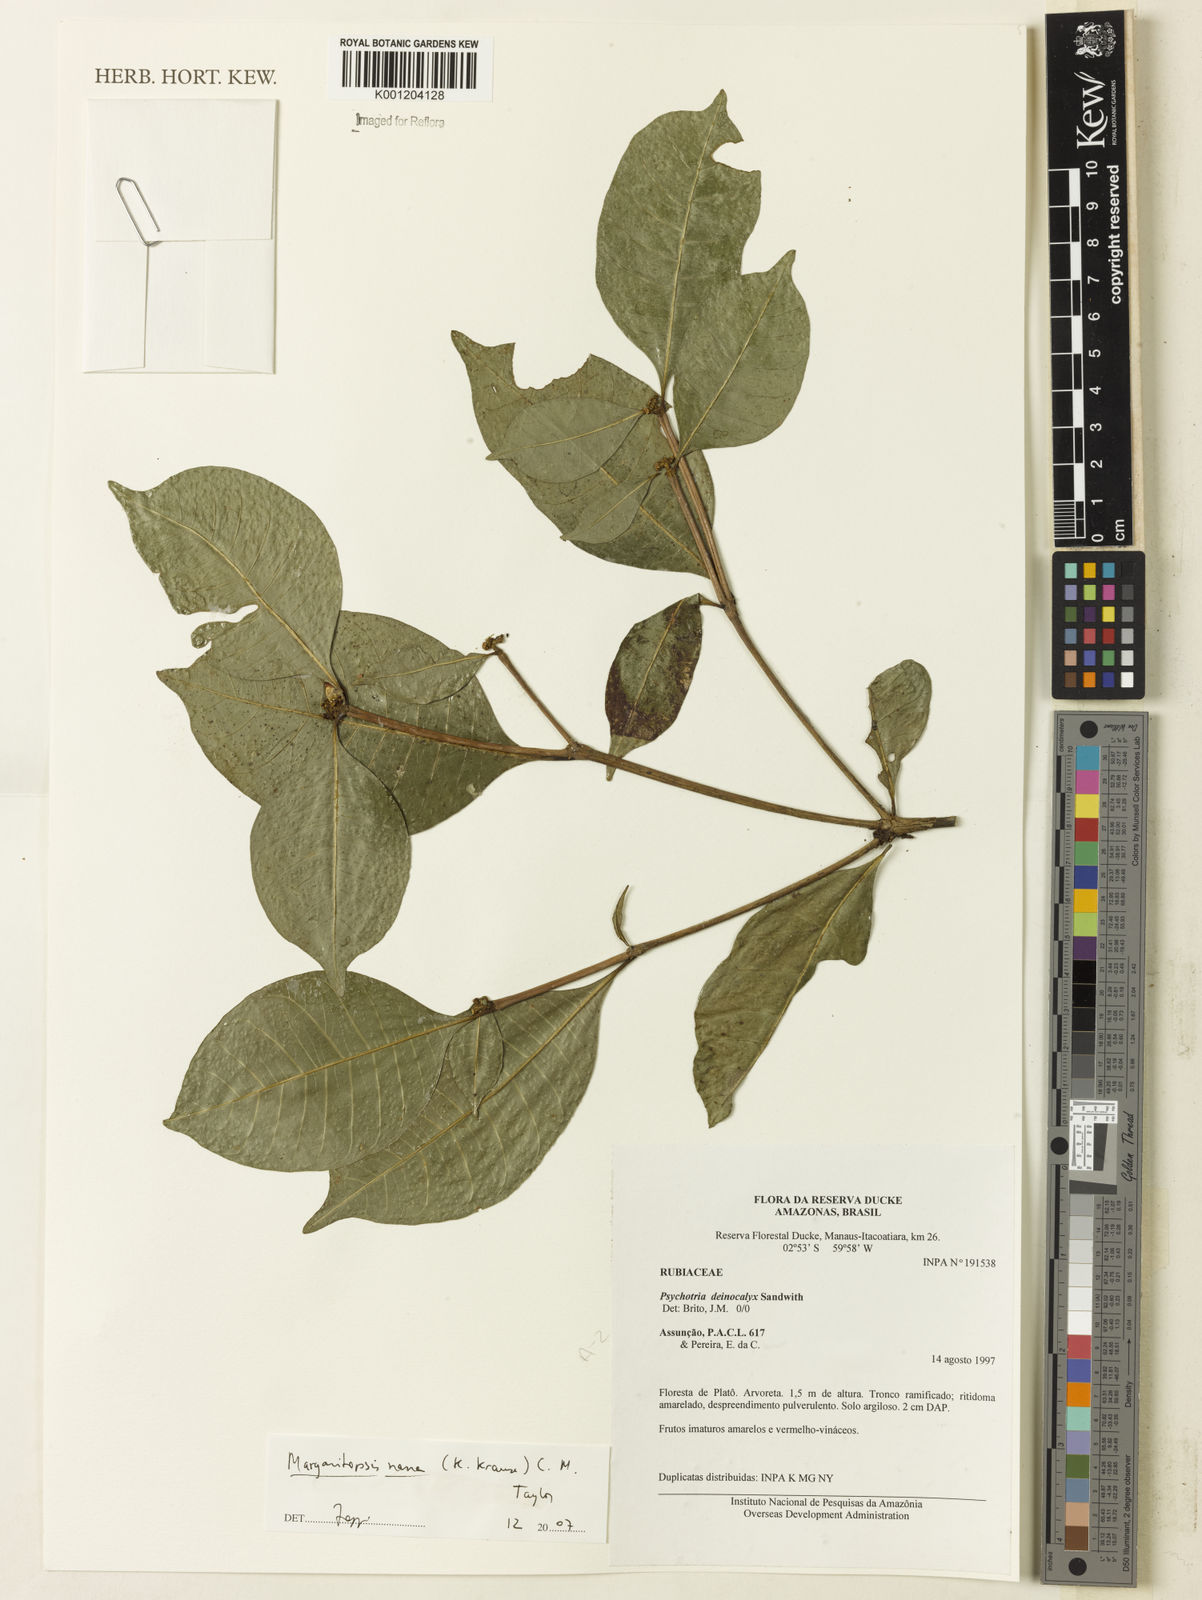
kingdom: Plantae
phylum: Tracheophyta
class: Magnoliopsida
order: Gentianales
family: Rubiaceae
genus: Eumachia
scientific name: Eumachia nana
